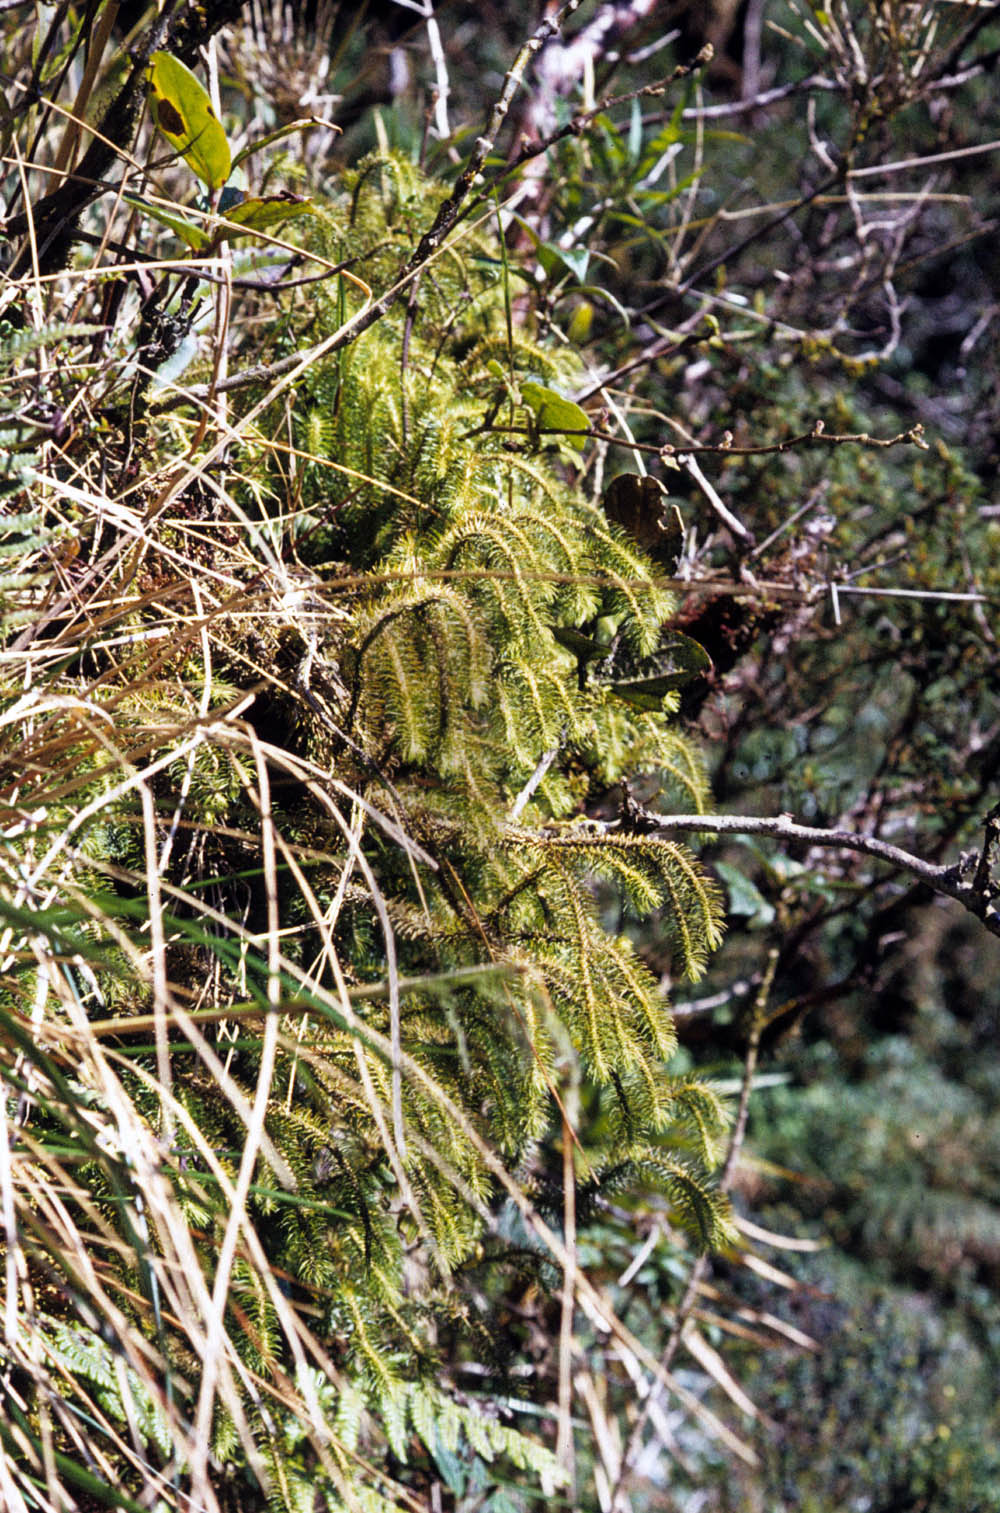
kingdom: Plantae
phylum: Tracheophyta
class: Lycopodiopsida
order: Lycopodiales
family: Lycopodiaceae
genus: Phlegmariurus
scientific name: Phlegmariurus arcuatus
